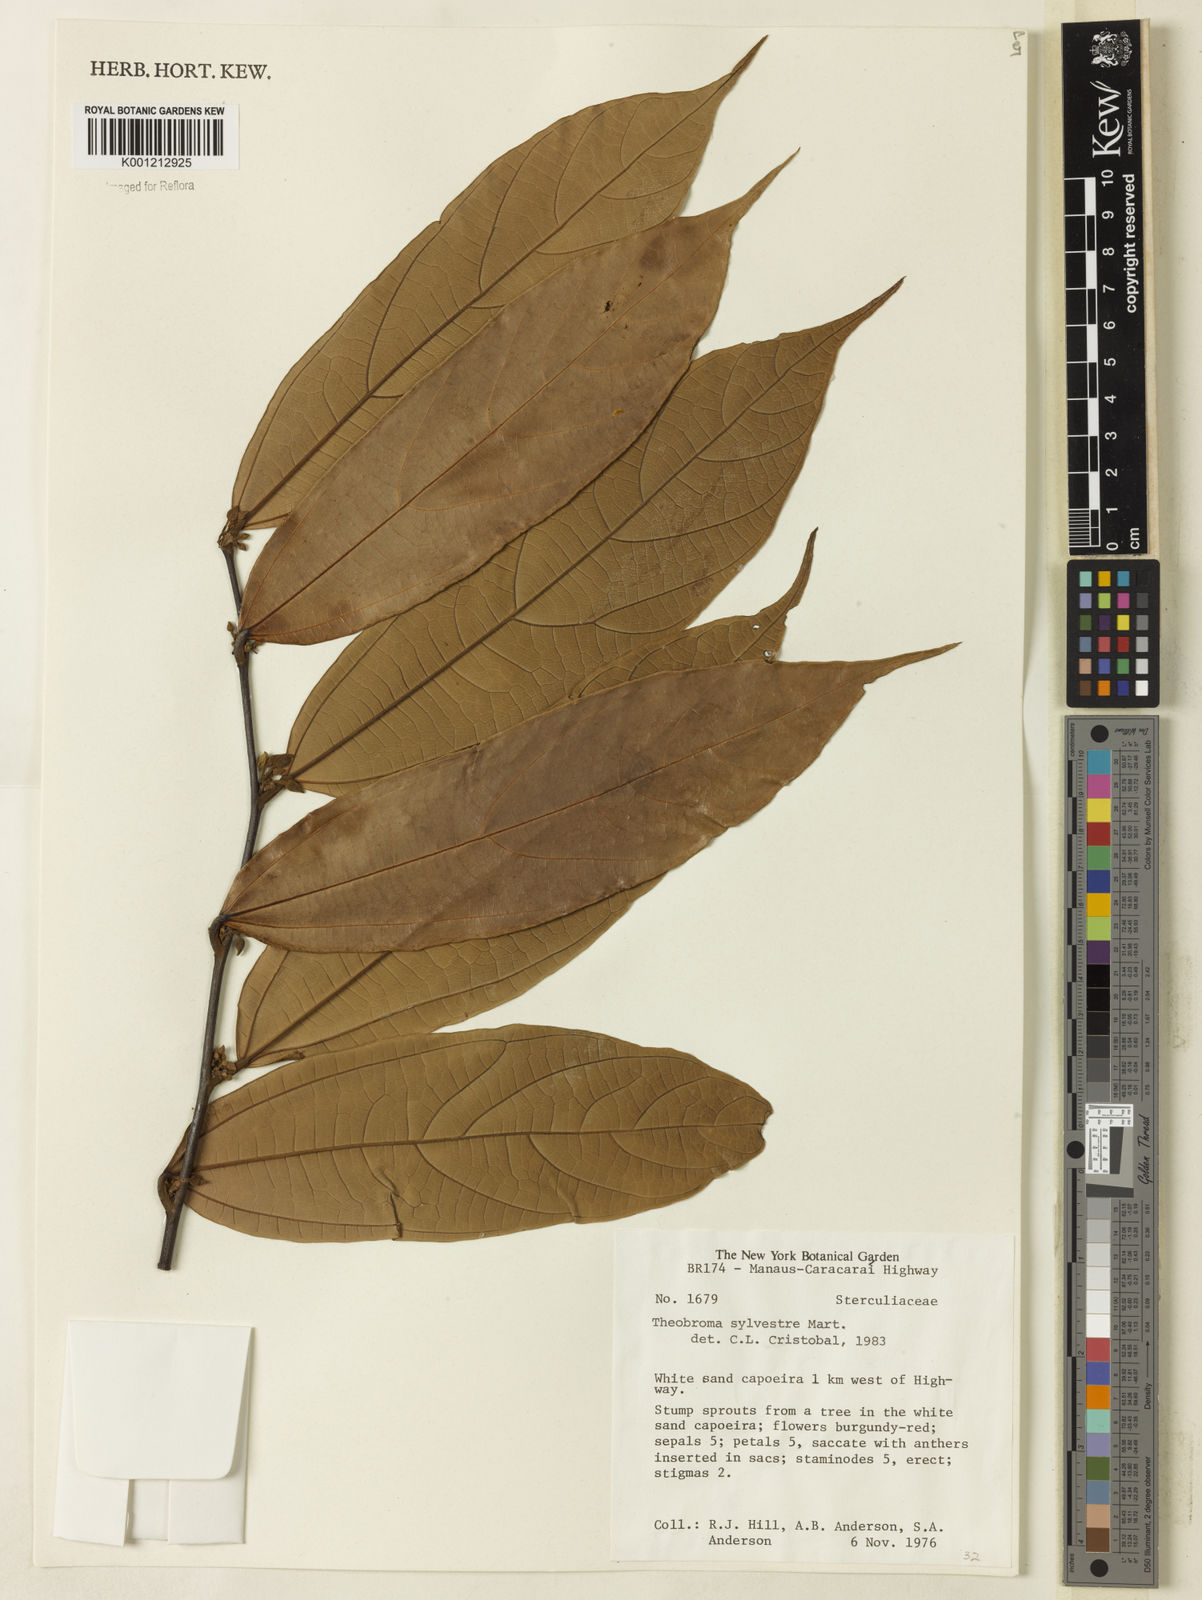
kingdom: Plantae
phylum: Tracheophyta
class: Magnoliopsida
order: Malvales
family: Malvaceae
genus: Theobroma
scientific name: Theobroma sylvestre
